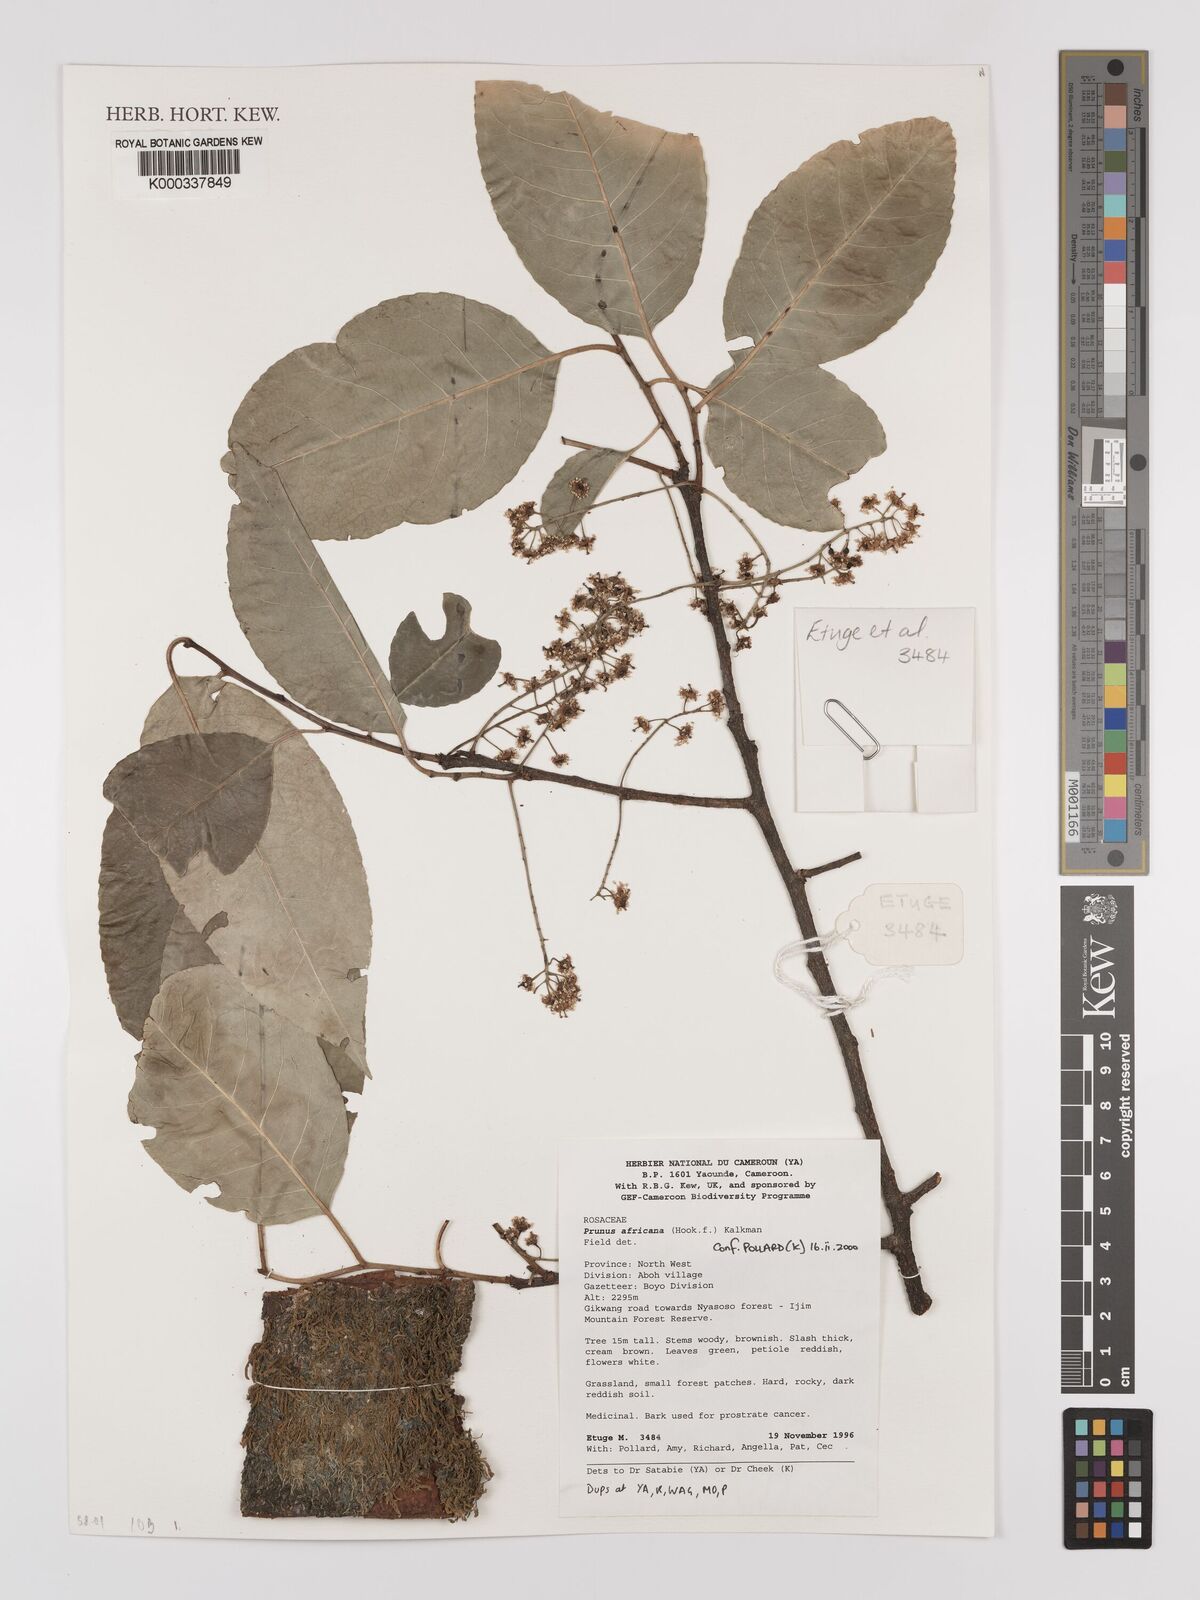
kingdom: Plantae
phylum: Tracheophyta
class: Magnoliopsida
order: Rosales
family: Rosaceae
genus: Prunus
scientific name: Prunus africana
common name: African cherry
